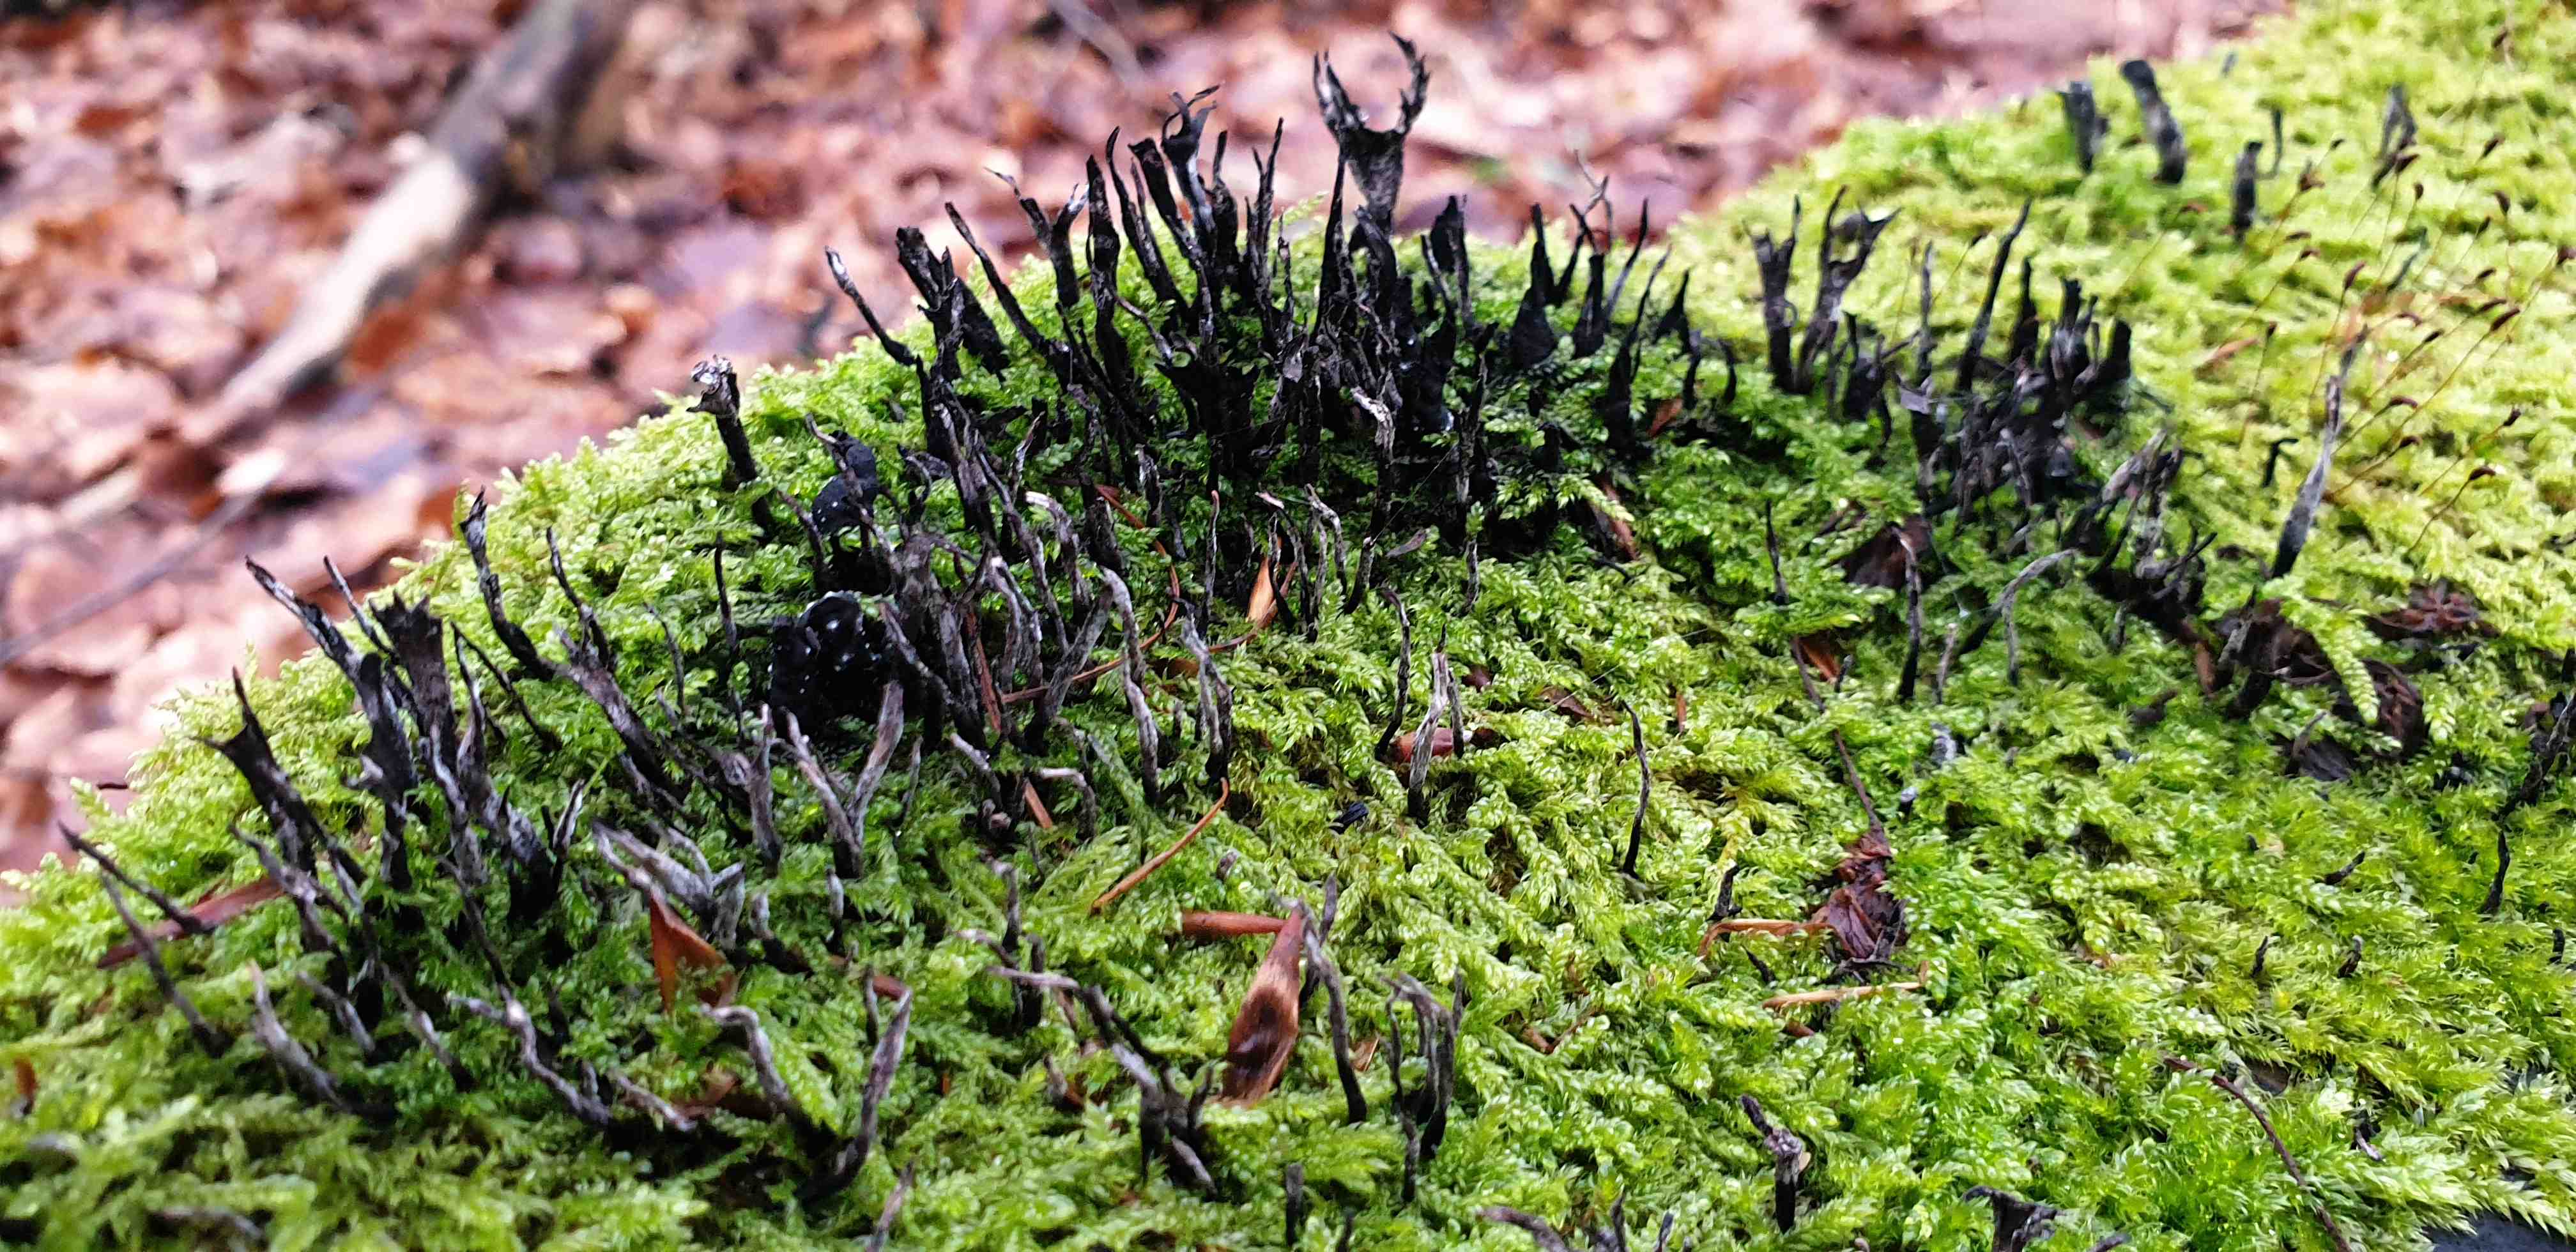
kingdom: Fungi
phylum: Ascomycota
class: Sordariomycetes
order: Xylariales
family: Xylariaceae
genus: Xylaria
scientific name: Xylaria hypoxylon
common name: grenet stødsvamp
